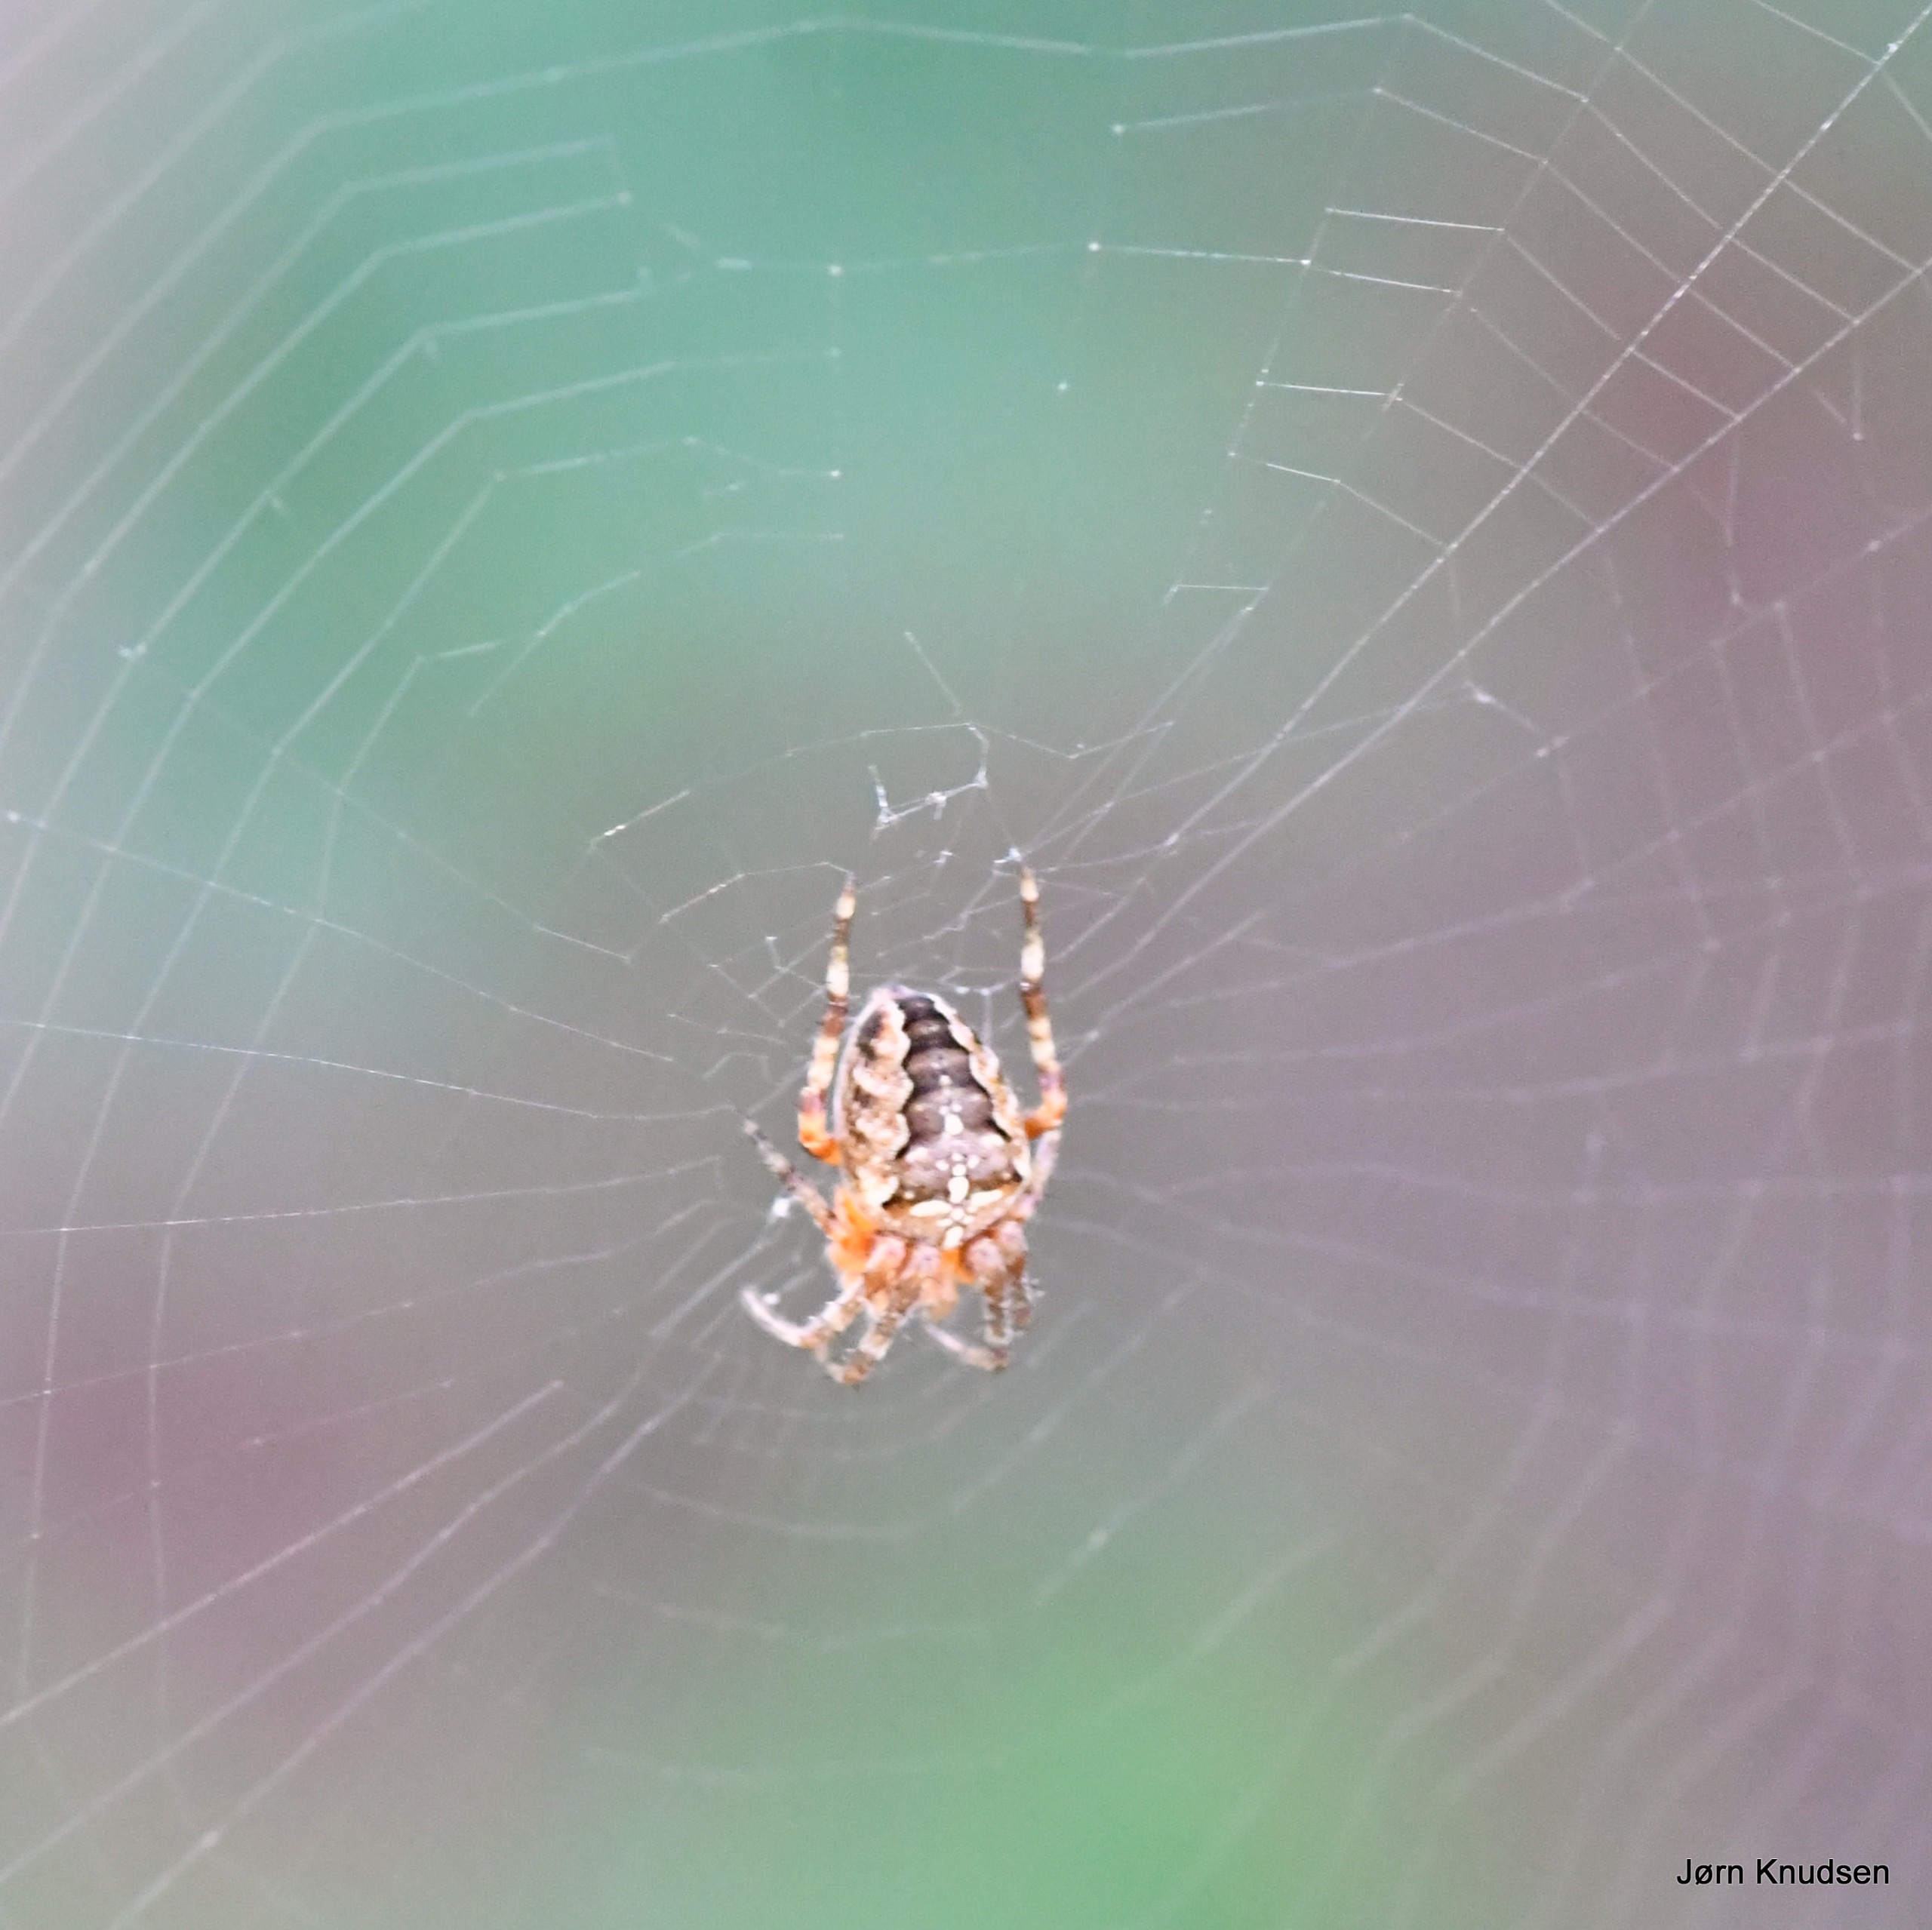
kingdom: Animalia
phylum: Arthropoda
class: Arachnida
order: Araneae
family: Araneidae
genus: Araneus
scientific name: Araneus diadematus
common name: Korsedderkop
